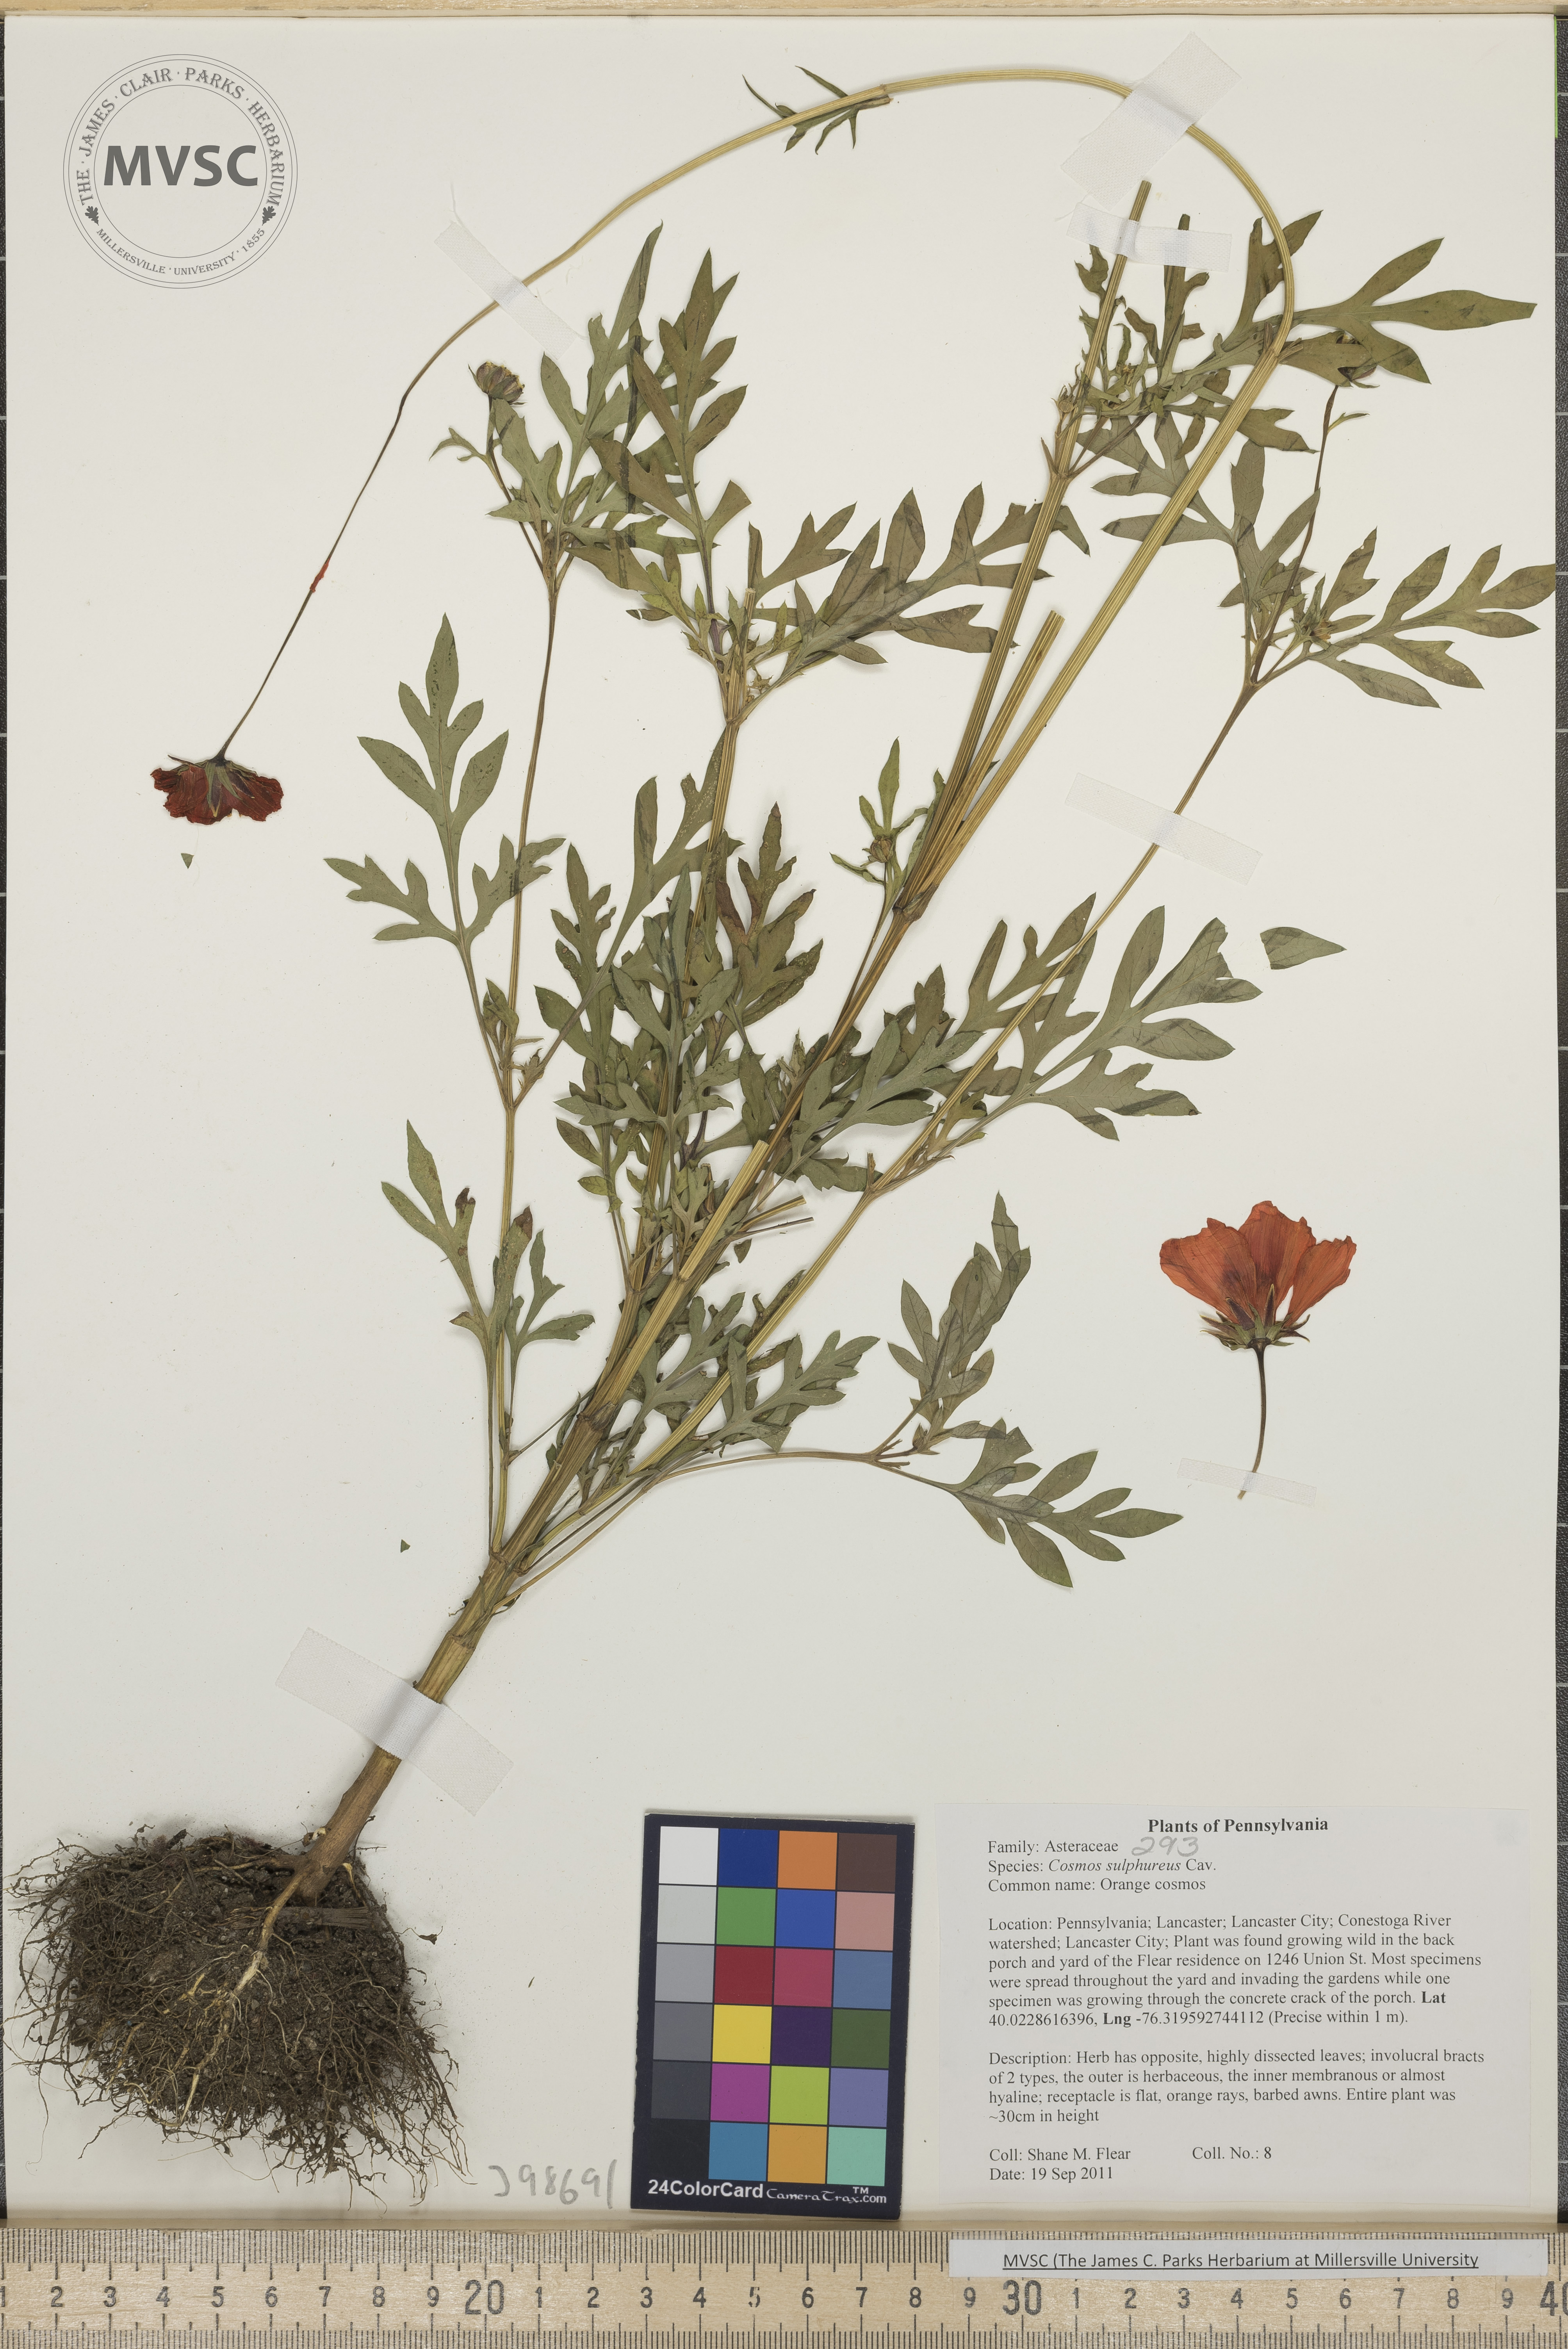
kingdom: Plantae
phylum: Tracheophyta
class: Magnoliopsida
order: Asterales
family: Asteraceae
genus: Cosmos
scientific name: Cosmos sulphureus
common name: Orange cosmos
